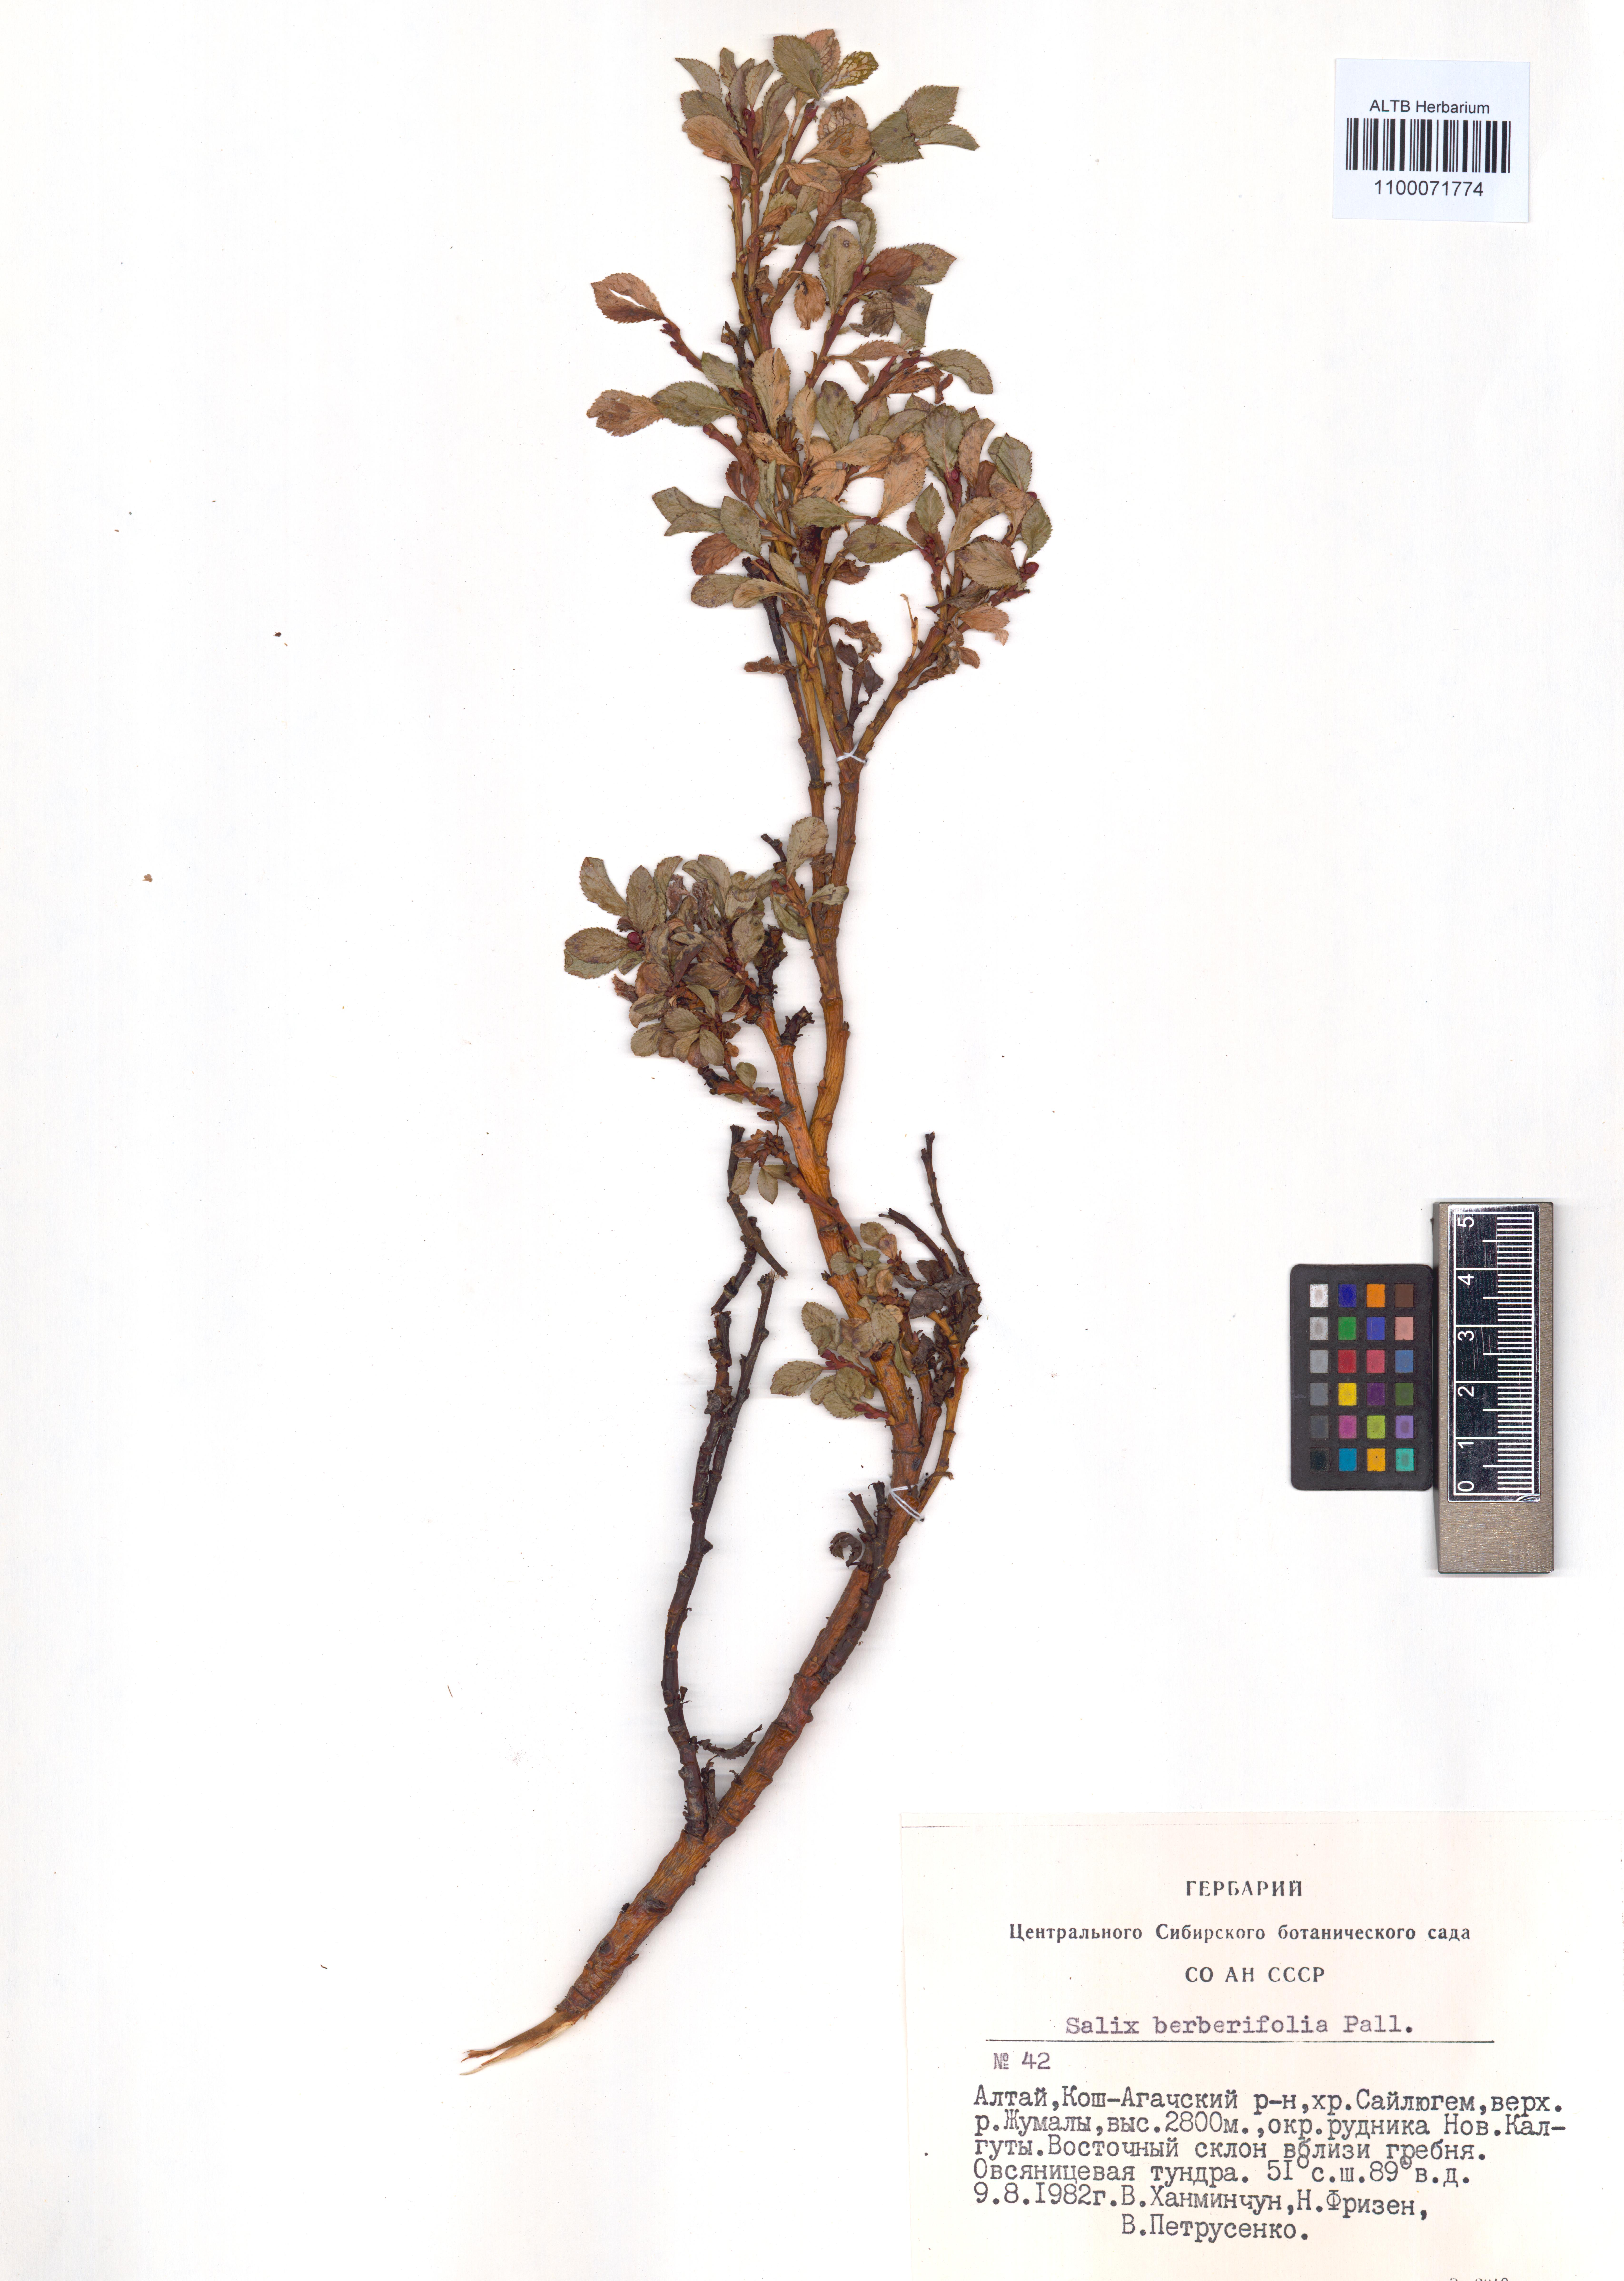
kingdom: Plantae
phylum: Tracheophyta
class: Magnoliopsida
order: Malpighiales
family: Salicaceae
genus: Salix
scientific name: Salix berberifolia
